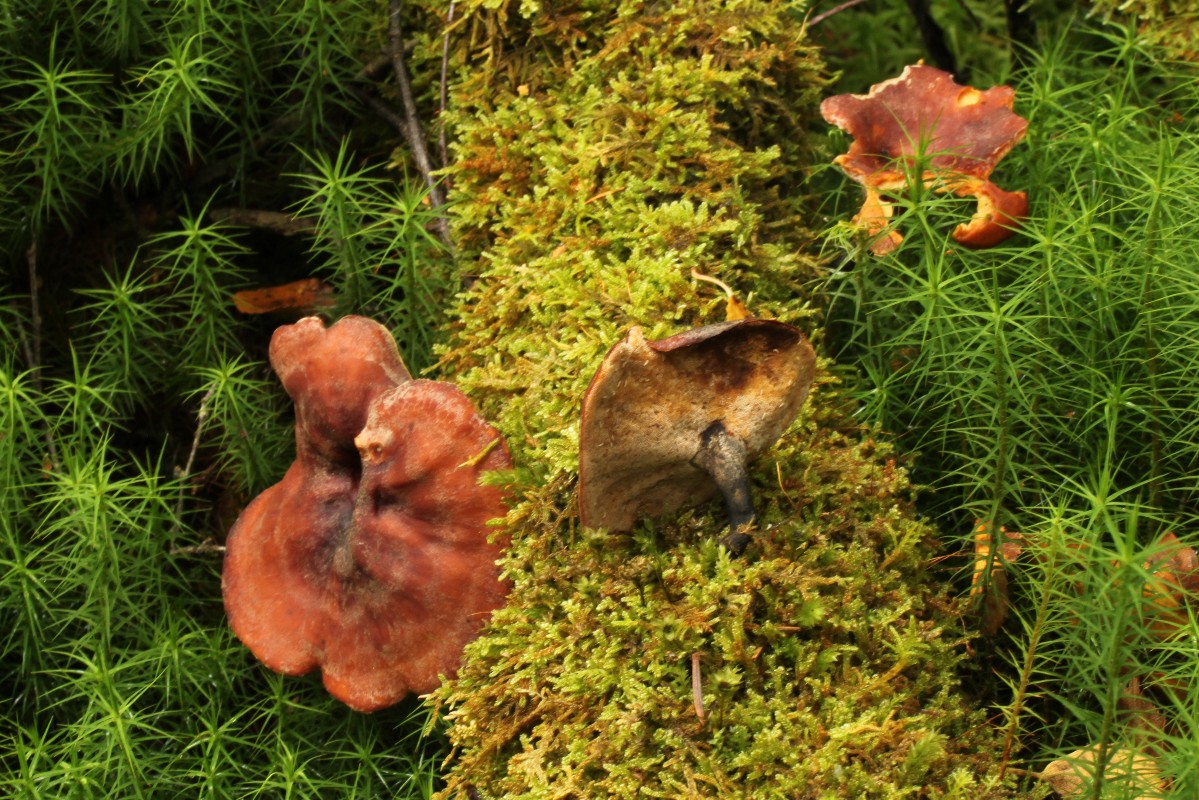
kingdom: Fungi
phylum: Basidiomycota
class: Agaricomycetes
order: Polyporales
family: Polyporaceae
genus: Picipes
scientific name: Picipes tubaeformis
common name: trompet-stilkporesvamp
